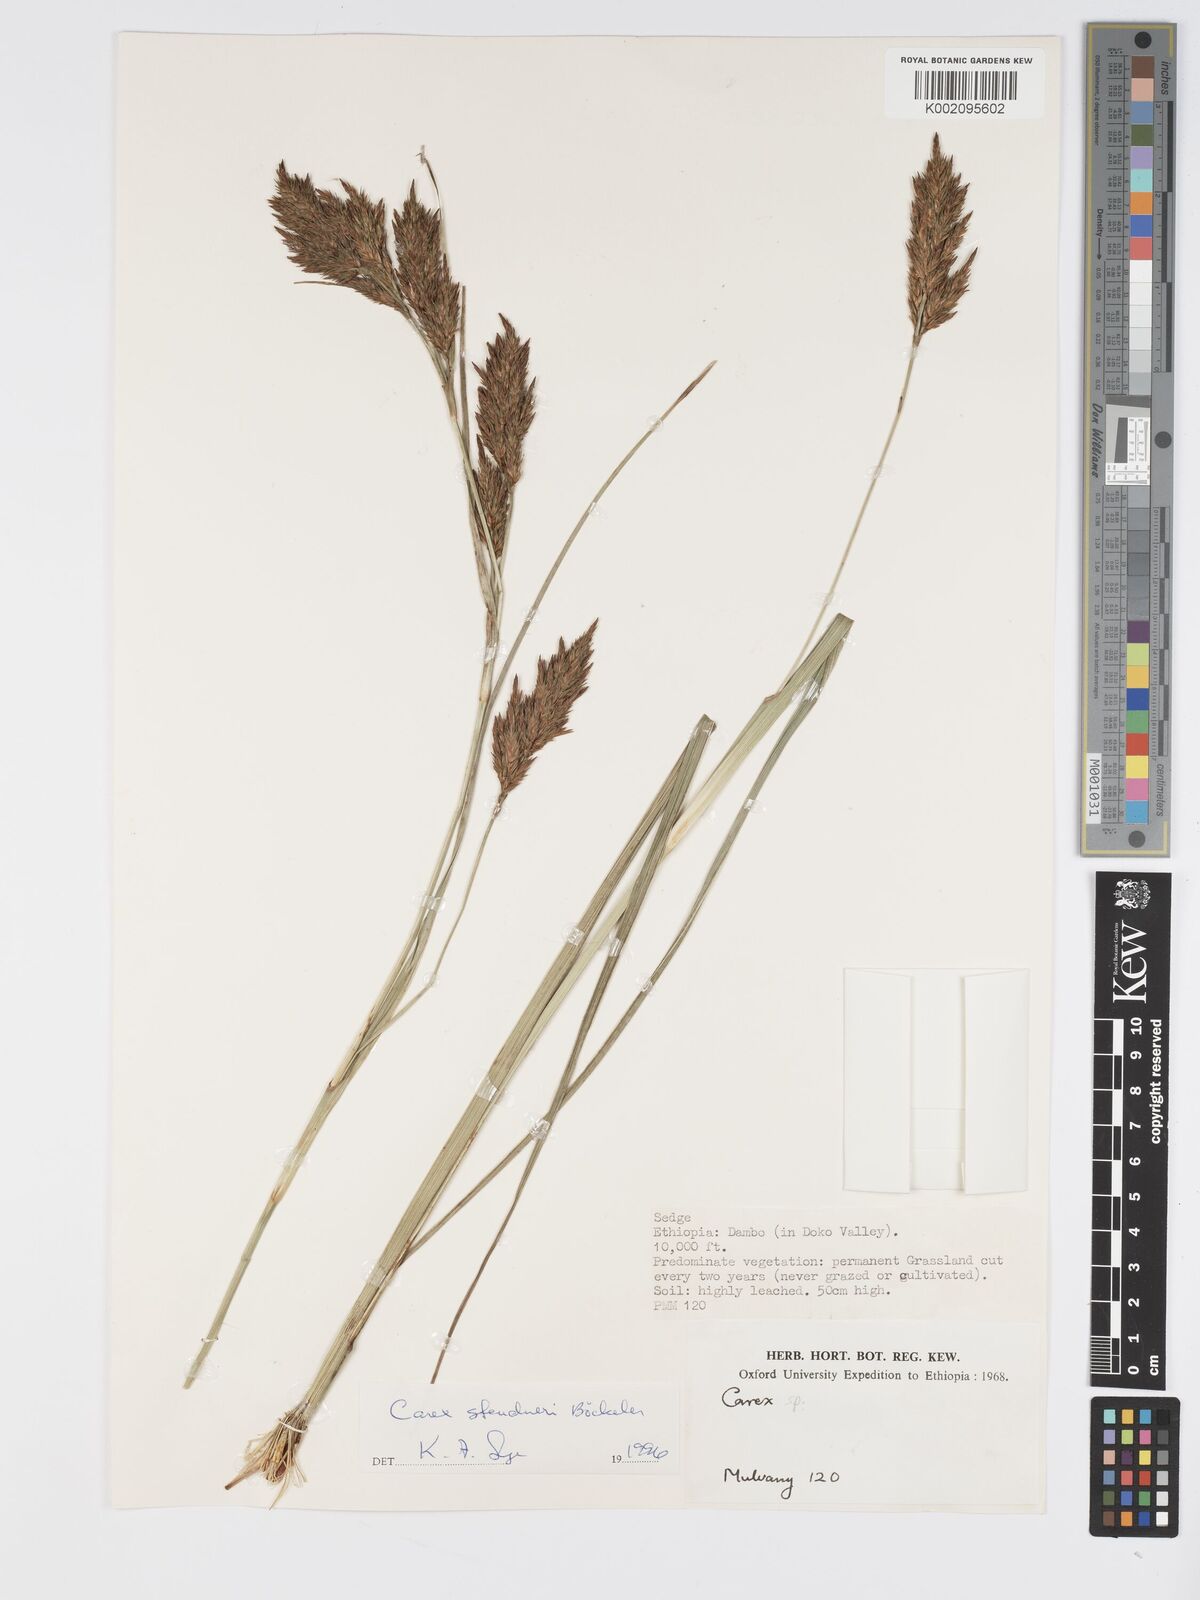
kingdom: Plantae
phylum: Tracheophyta
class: Liliopsida
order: Poales
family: Cyperaceae
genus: Carex
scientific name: Carex steudneri
